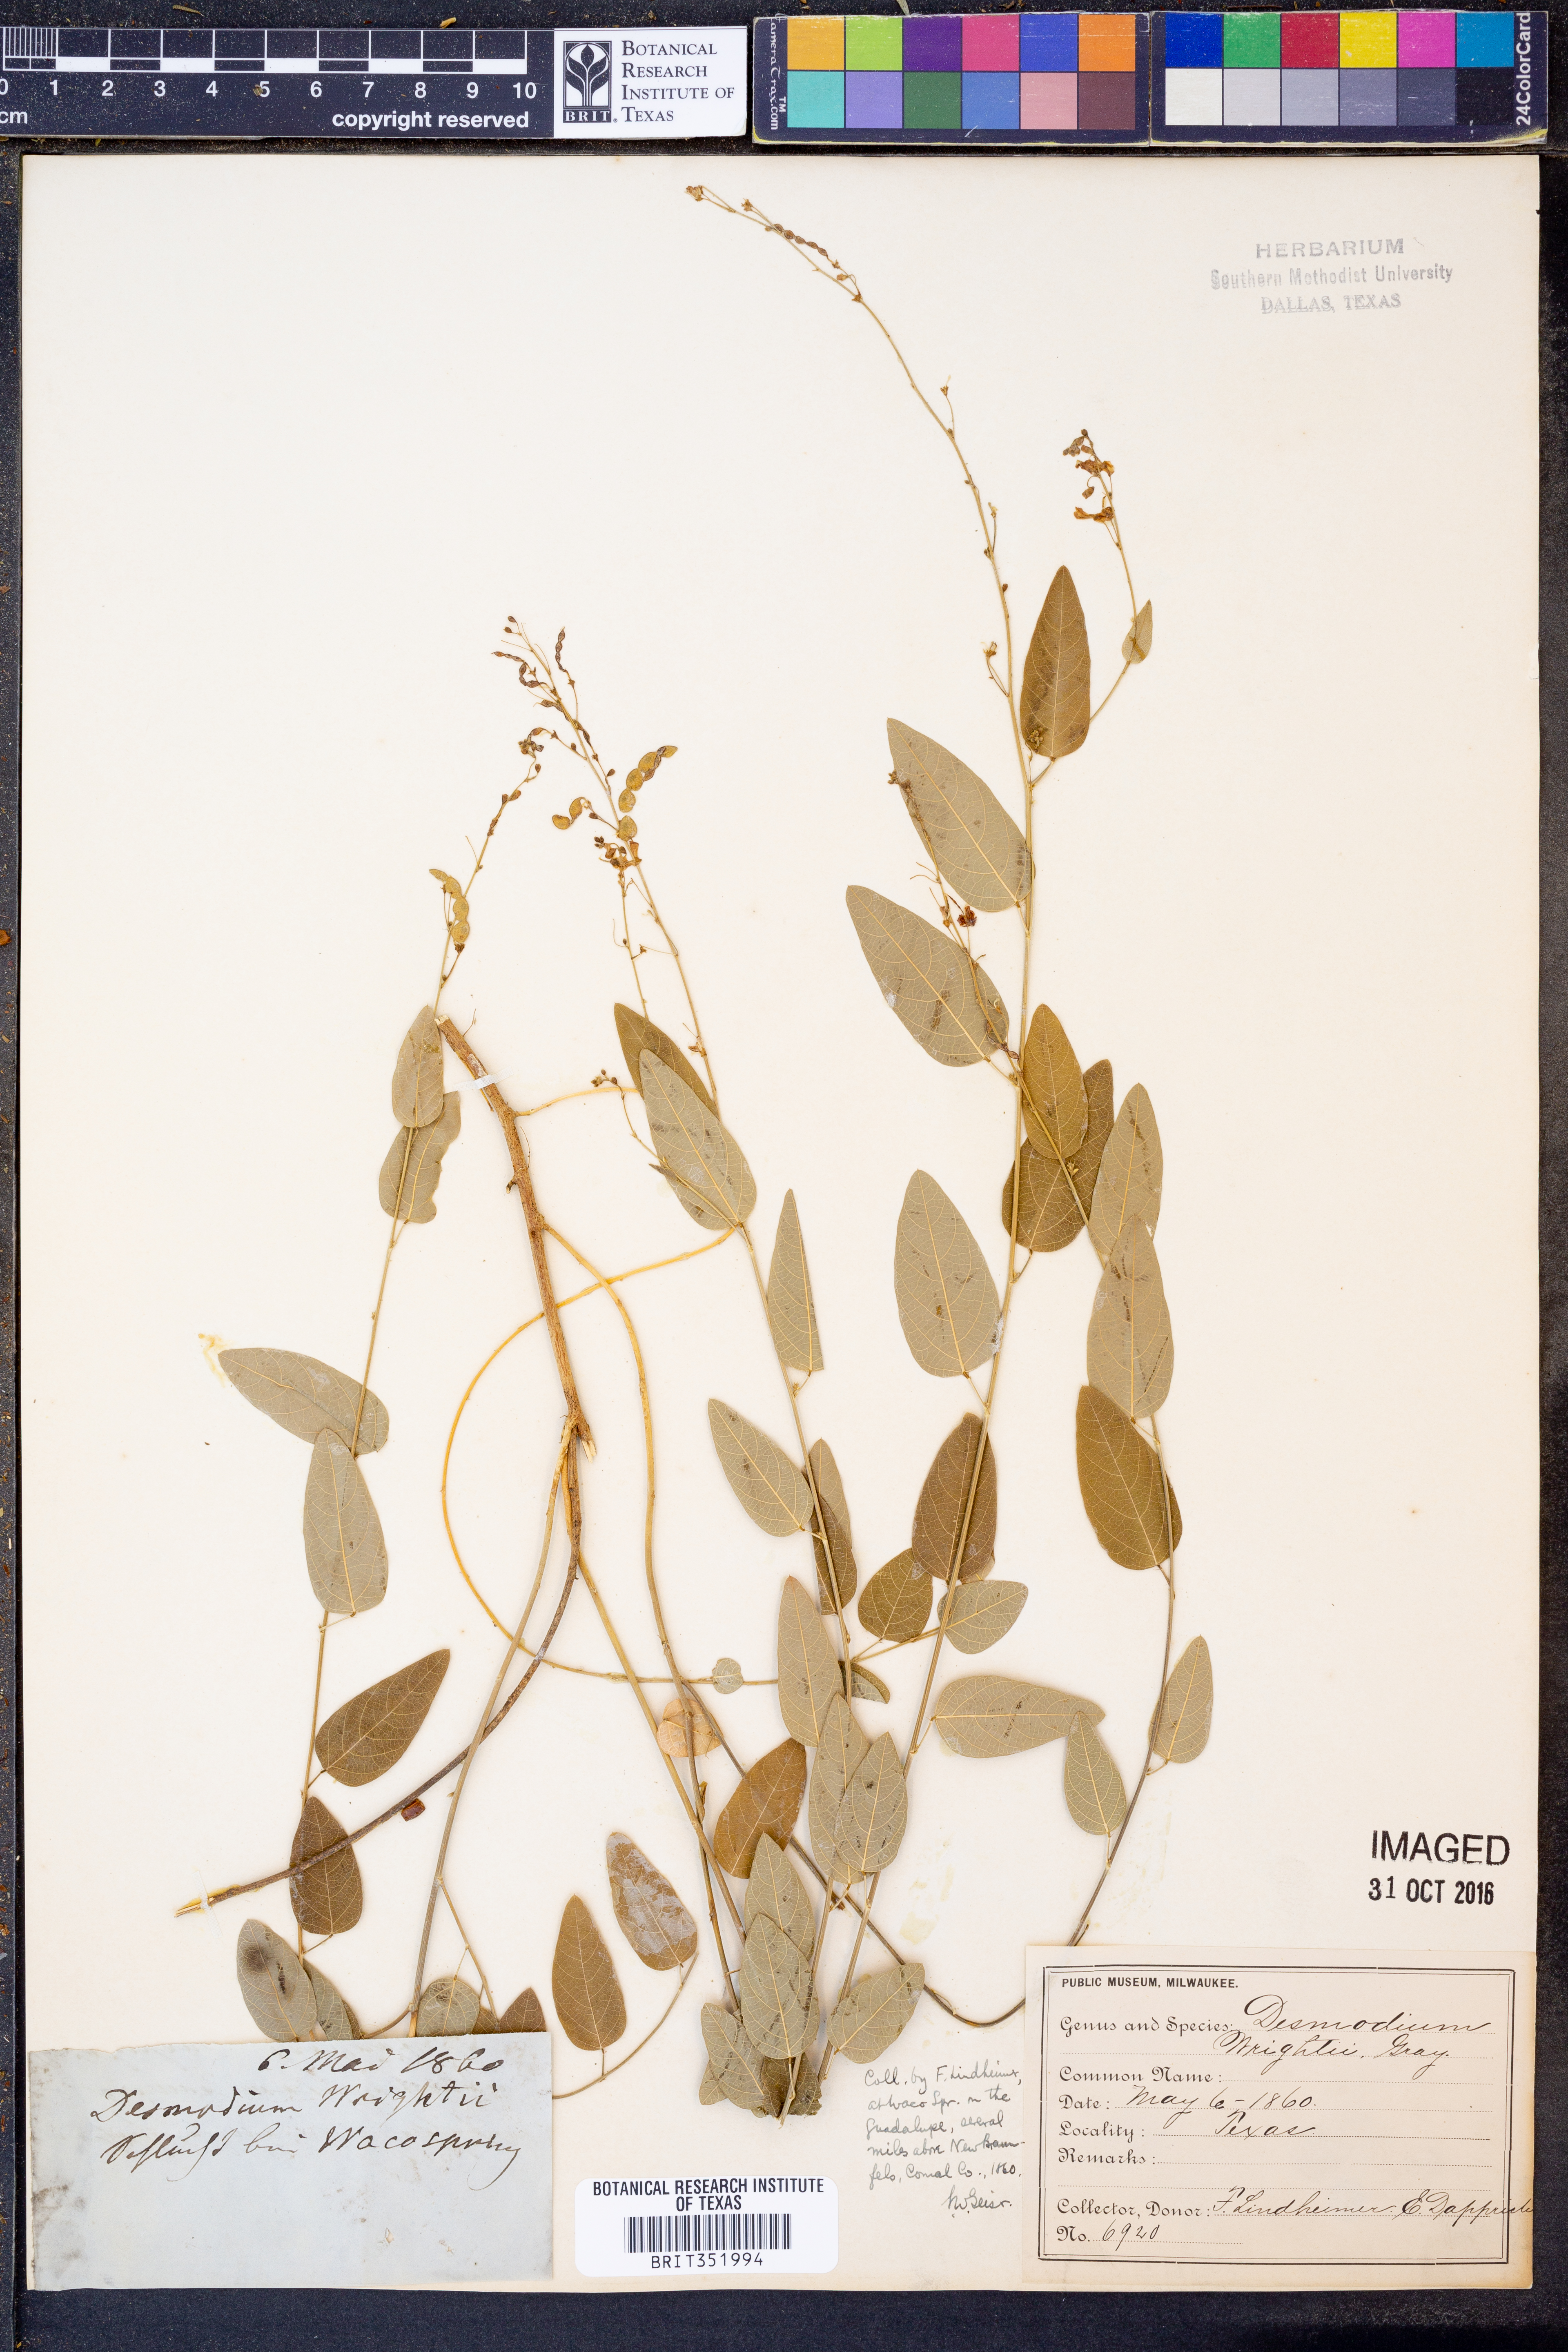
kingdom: Plantae
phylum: Tracheophyta
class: Magnoliopsida
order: Fabales
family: Fabaceae
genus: Desmodium
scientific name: Desmodium psilophyllum
